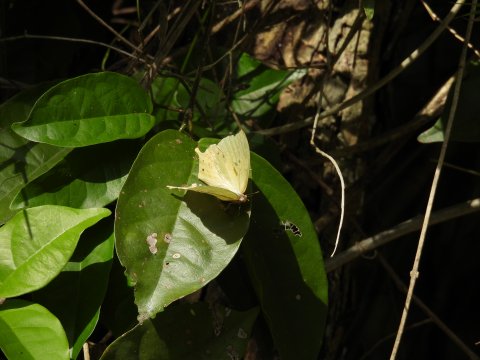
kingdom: Animalia
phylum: Arthropoda
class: Insecta
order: Lepidoptera
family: Nymphalidae
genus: Zaretis
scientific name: Zaretis itys
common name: Seasonal Leafwing
